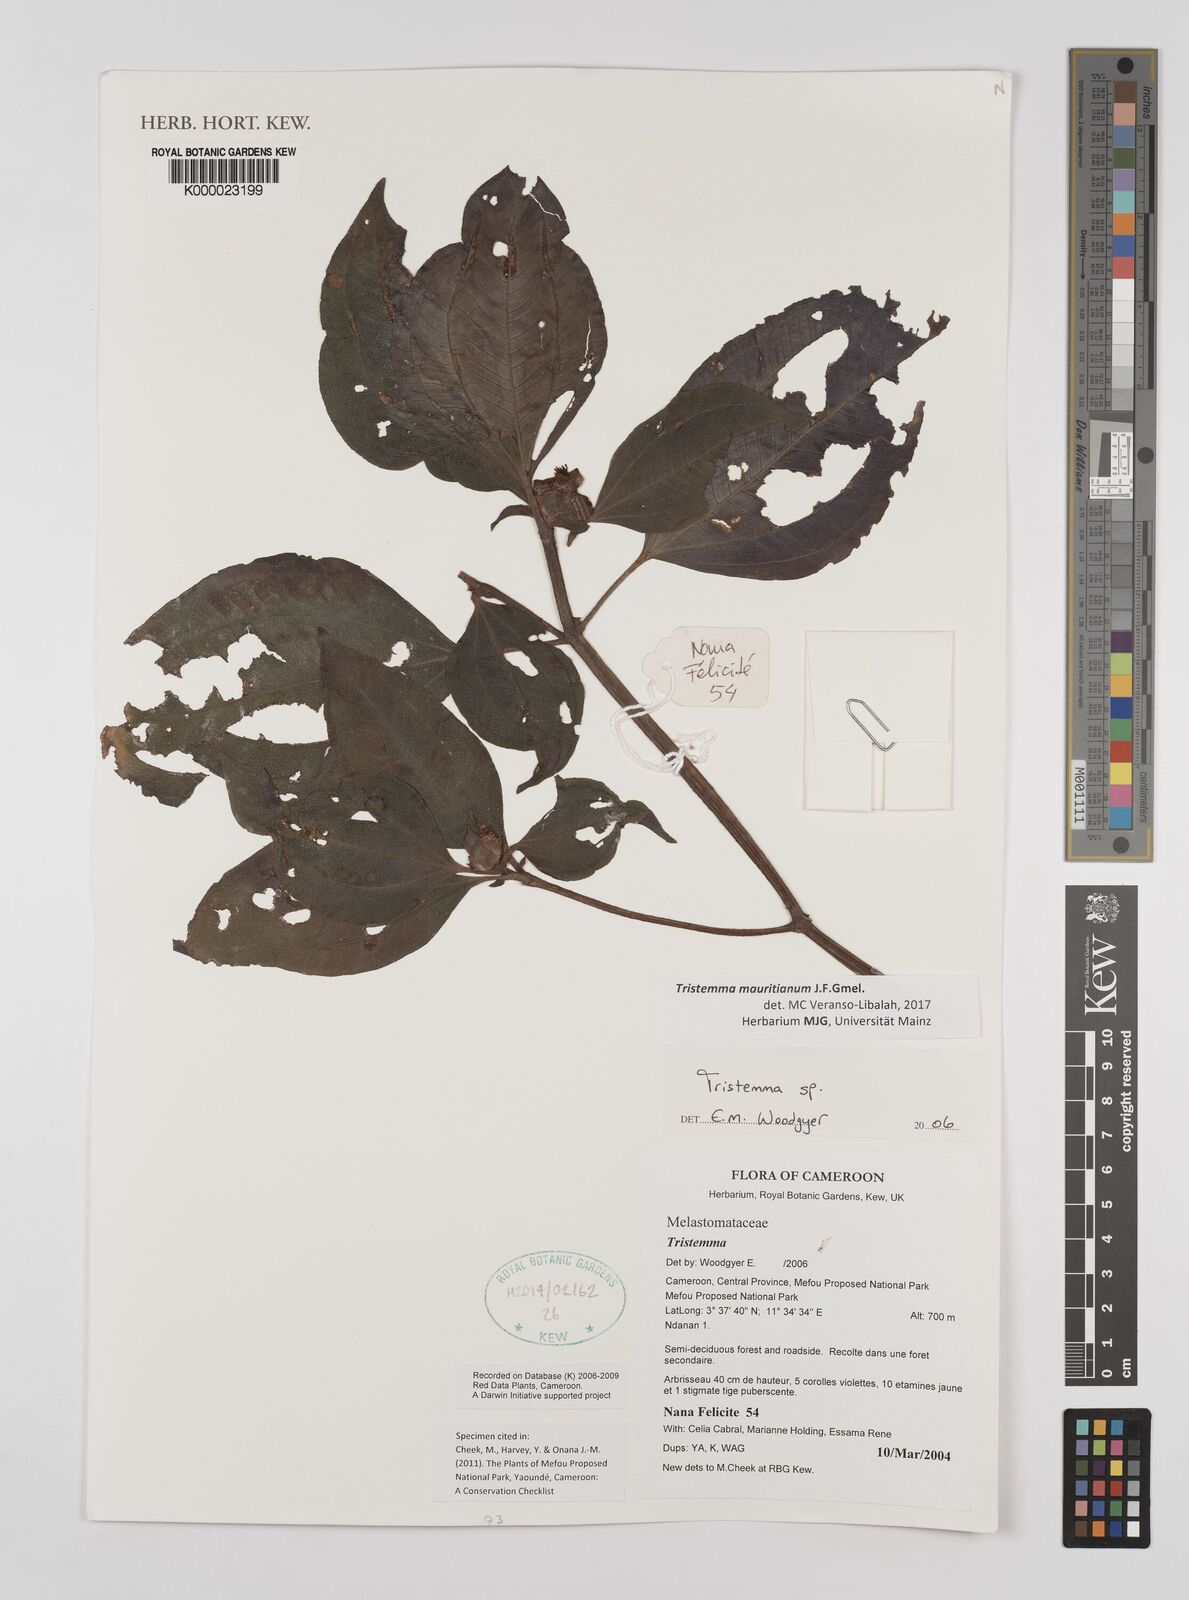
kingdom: Plantae
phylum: Tracheophyta
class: Magnoliopsida
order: Myrtales
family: Melastomataceae
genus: Tristemma
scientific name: Tristemma
